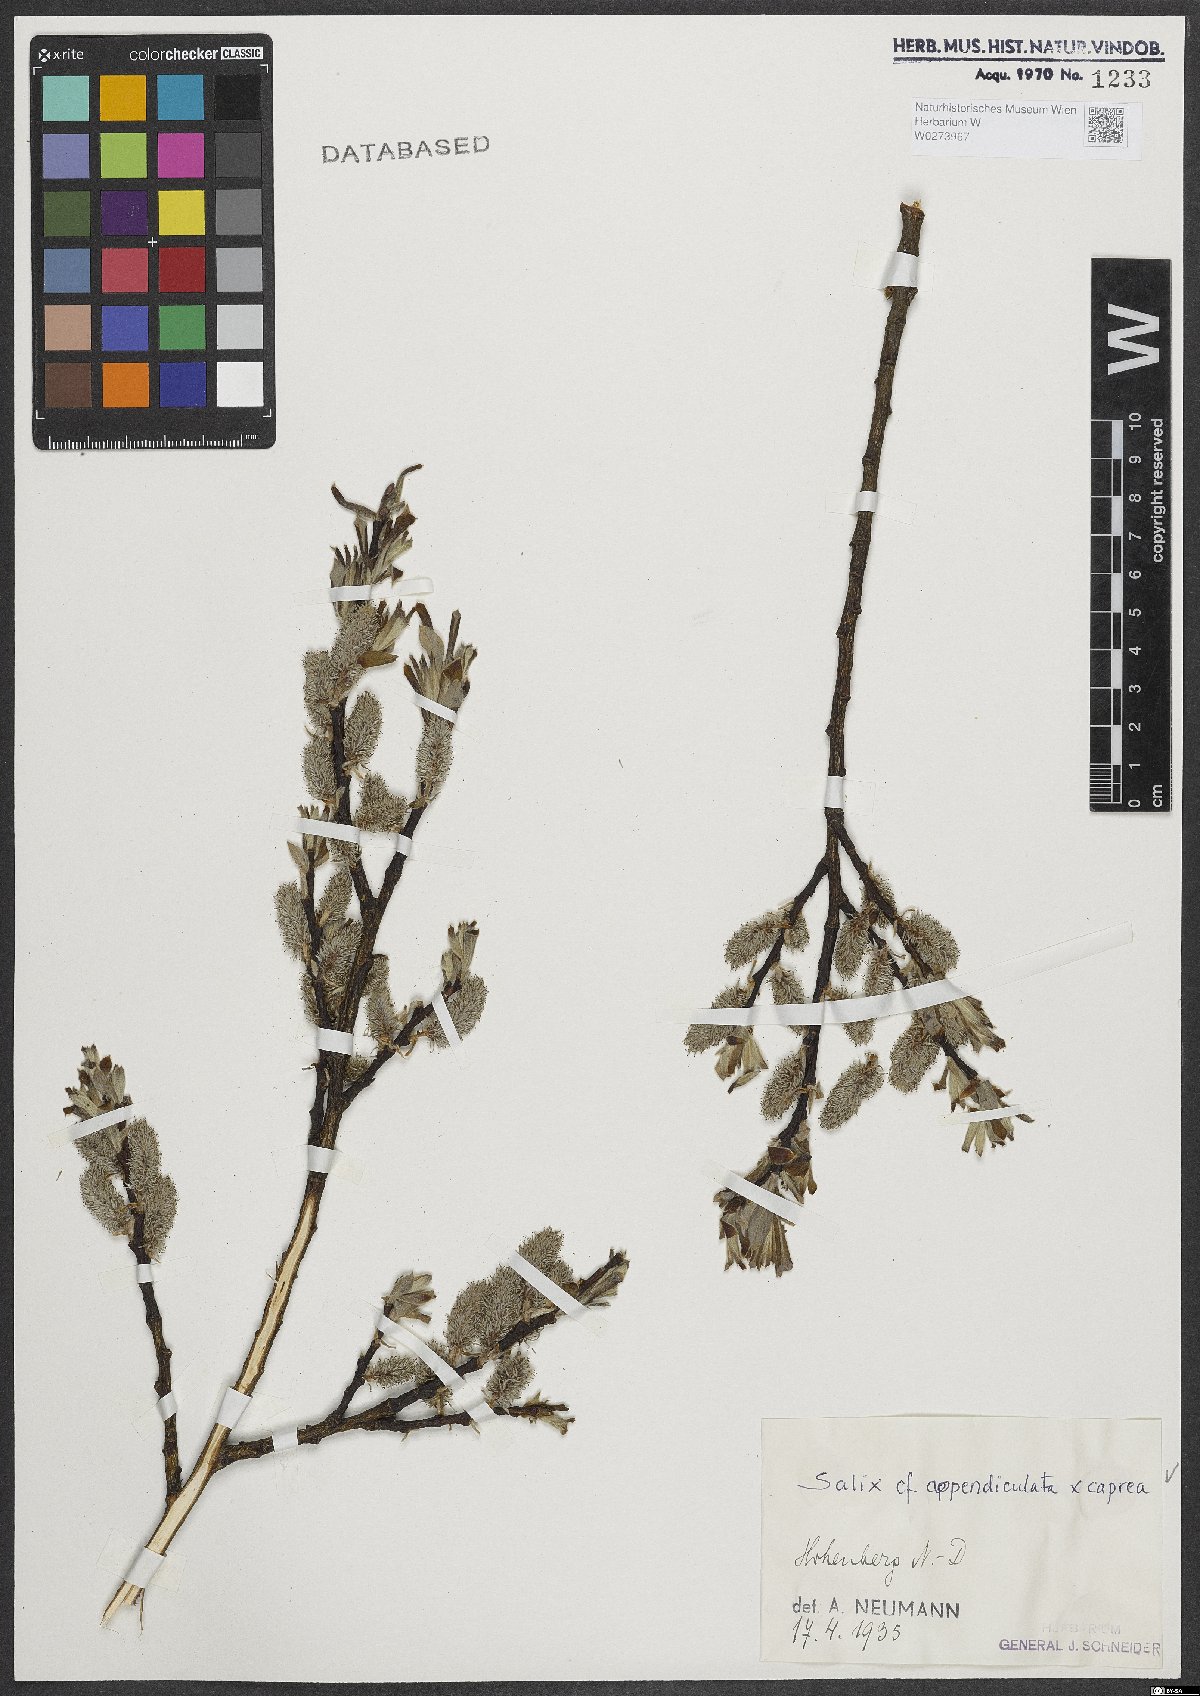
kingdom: Plantae
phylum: Tracheophyta
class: Magnoliopsida
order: Malpighiales
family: Salicaceae
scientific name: Salicaceae
